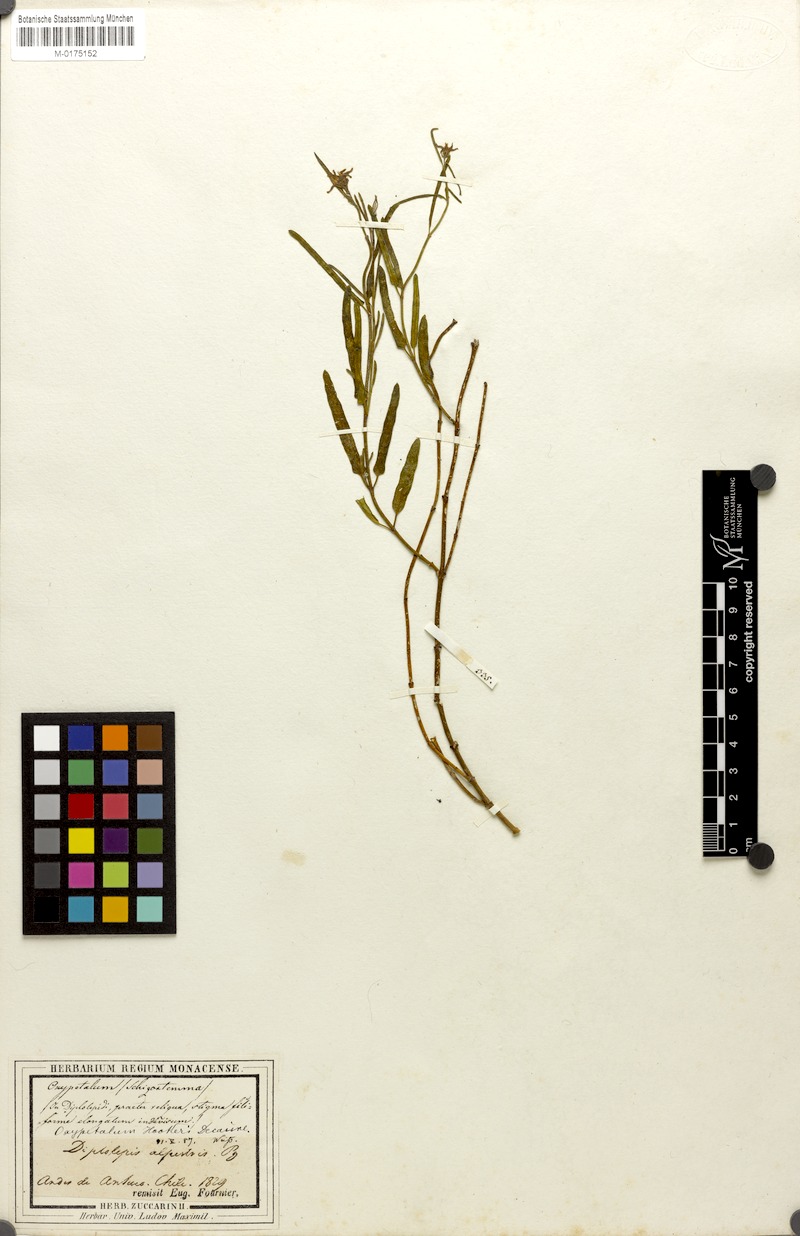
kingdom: Plantae
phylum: Tracheophyta
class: Magnoliopsida
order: Gentianales
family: Apocynaceae
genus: Diplolepis
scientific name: Diplolepis
